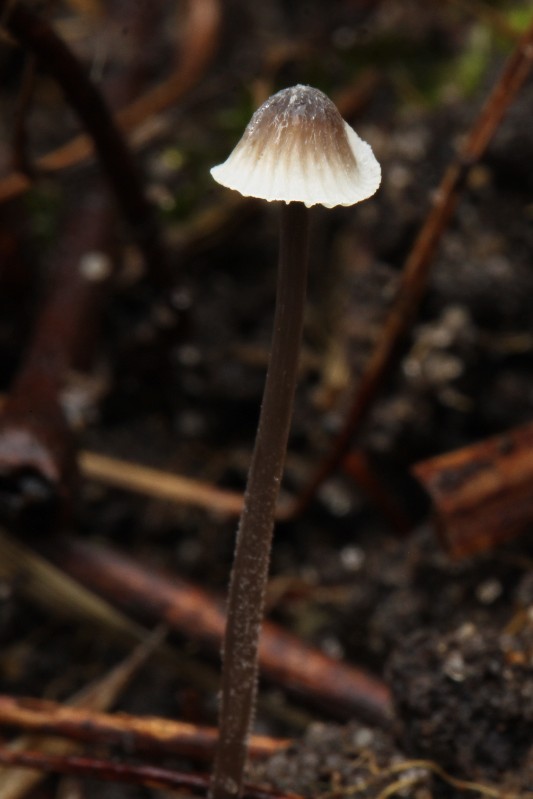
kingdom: Fungi
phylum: Basidiomycota
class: Agaricomycetes
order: Agaricales
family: Mycenaceae
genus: Mycena
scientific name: Mycena
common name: huesvamp
